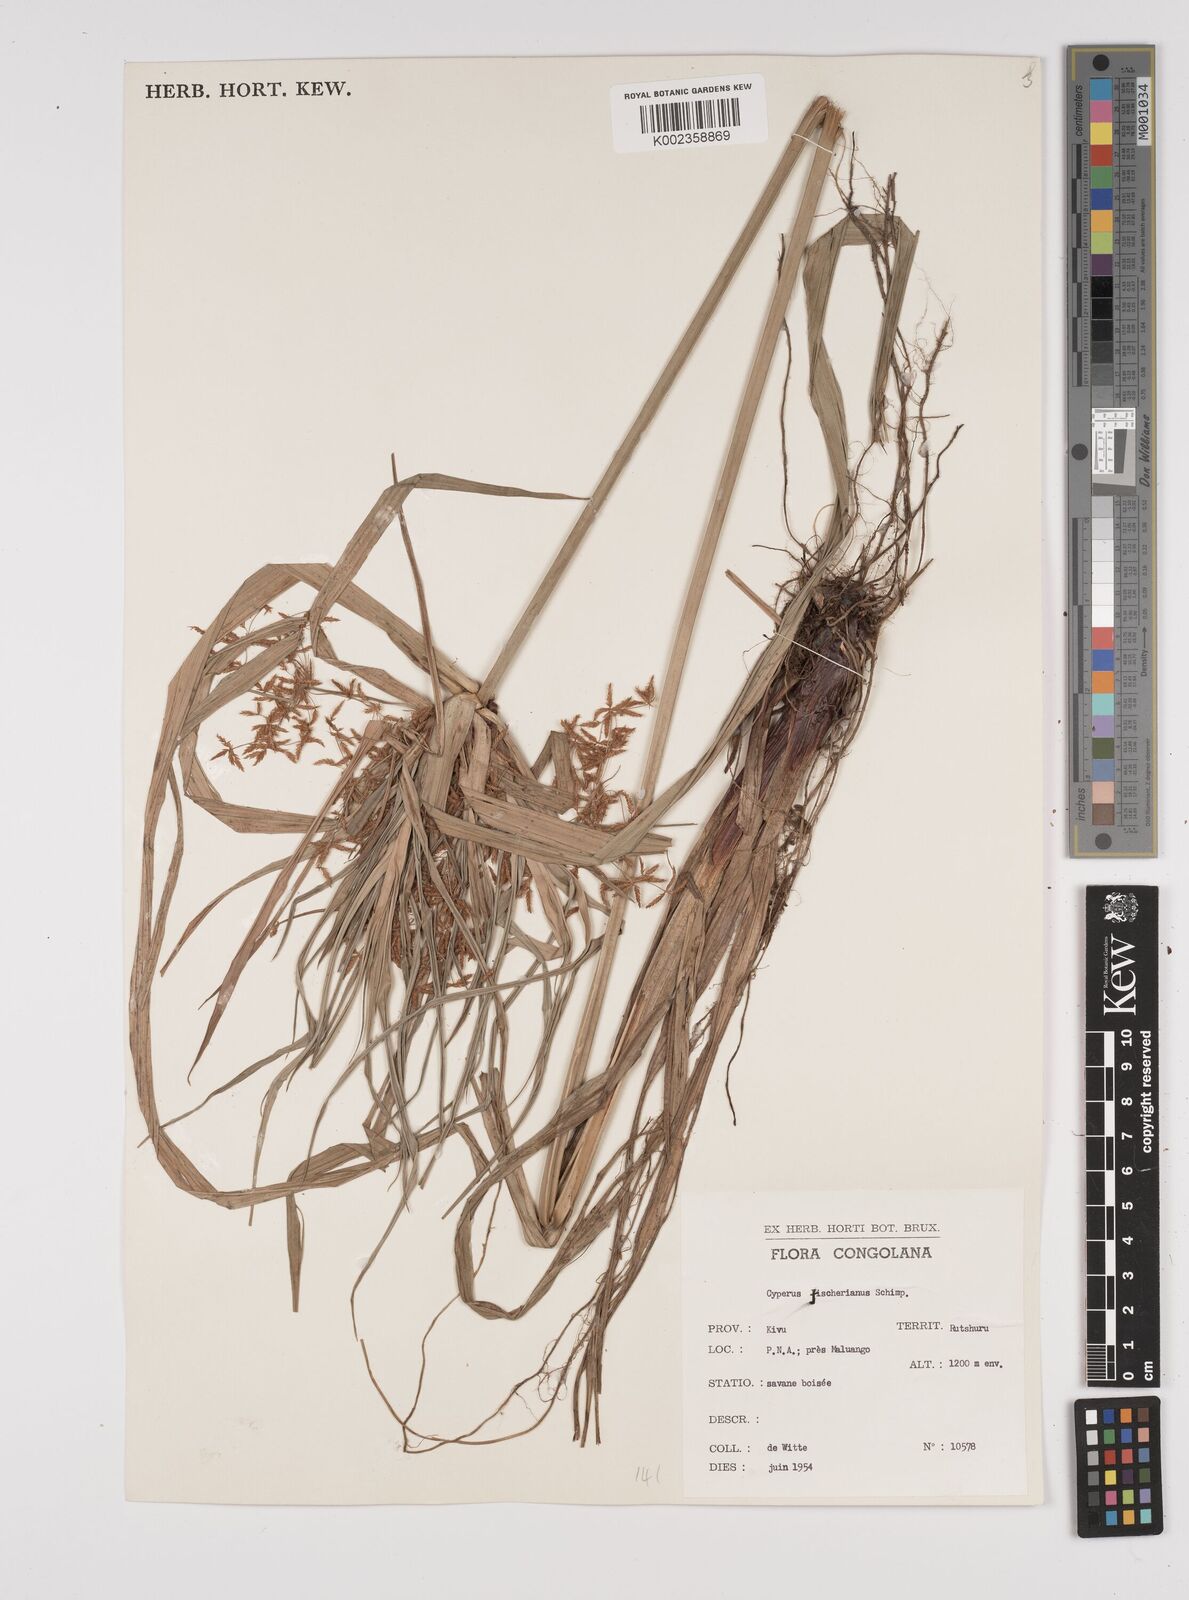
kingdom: Plantae
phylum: Tracheophyta
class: Liliopsida
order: Poales
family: Cyperaceae
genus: Cyperus
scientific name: Cyperus fischerianus
